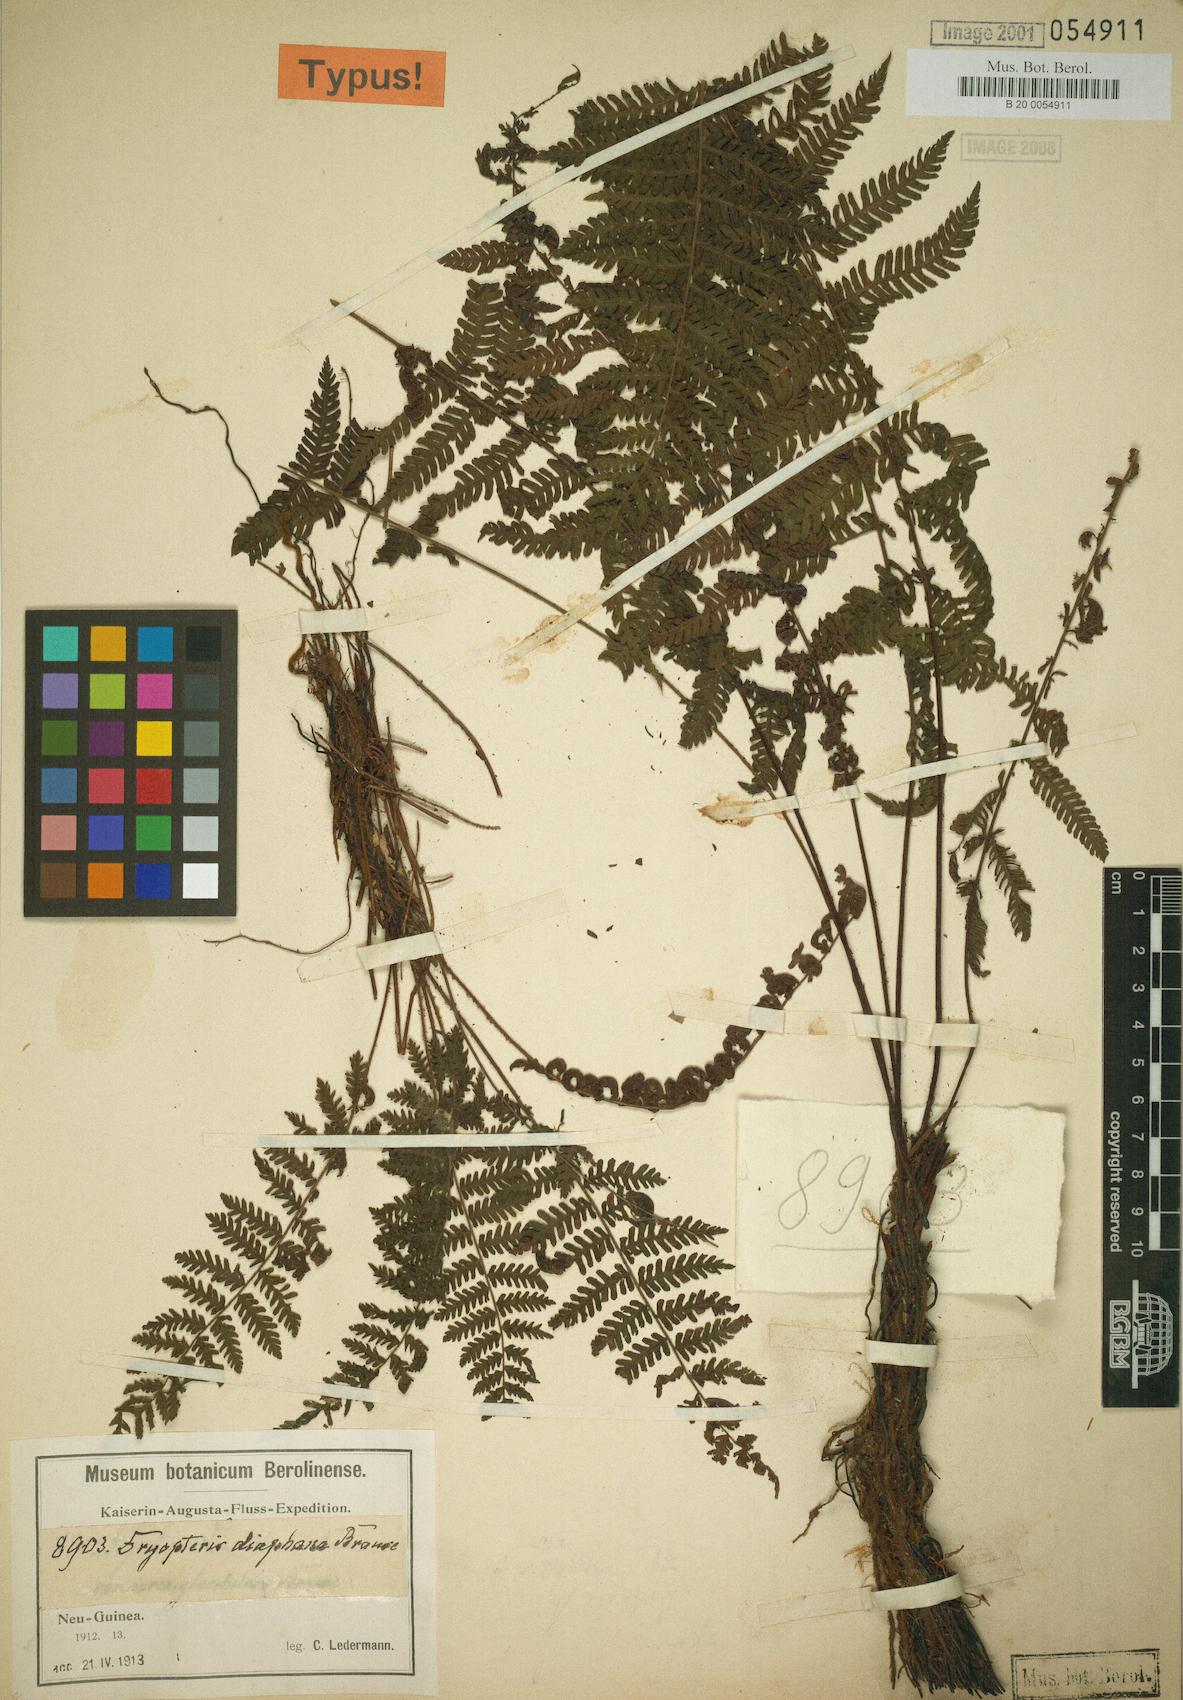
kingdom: Plantae
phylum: Tracheophyta
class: Polypodiopsida
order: Polypodiales
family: Thelypteridaceae
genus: Coryphopteris
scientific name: Coryphopteris diaphana
